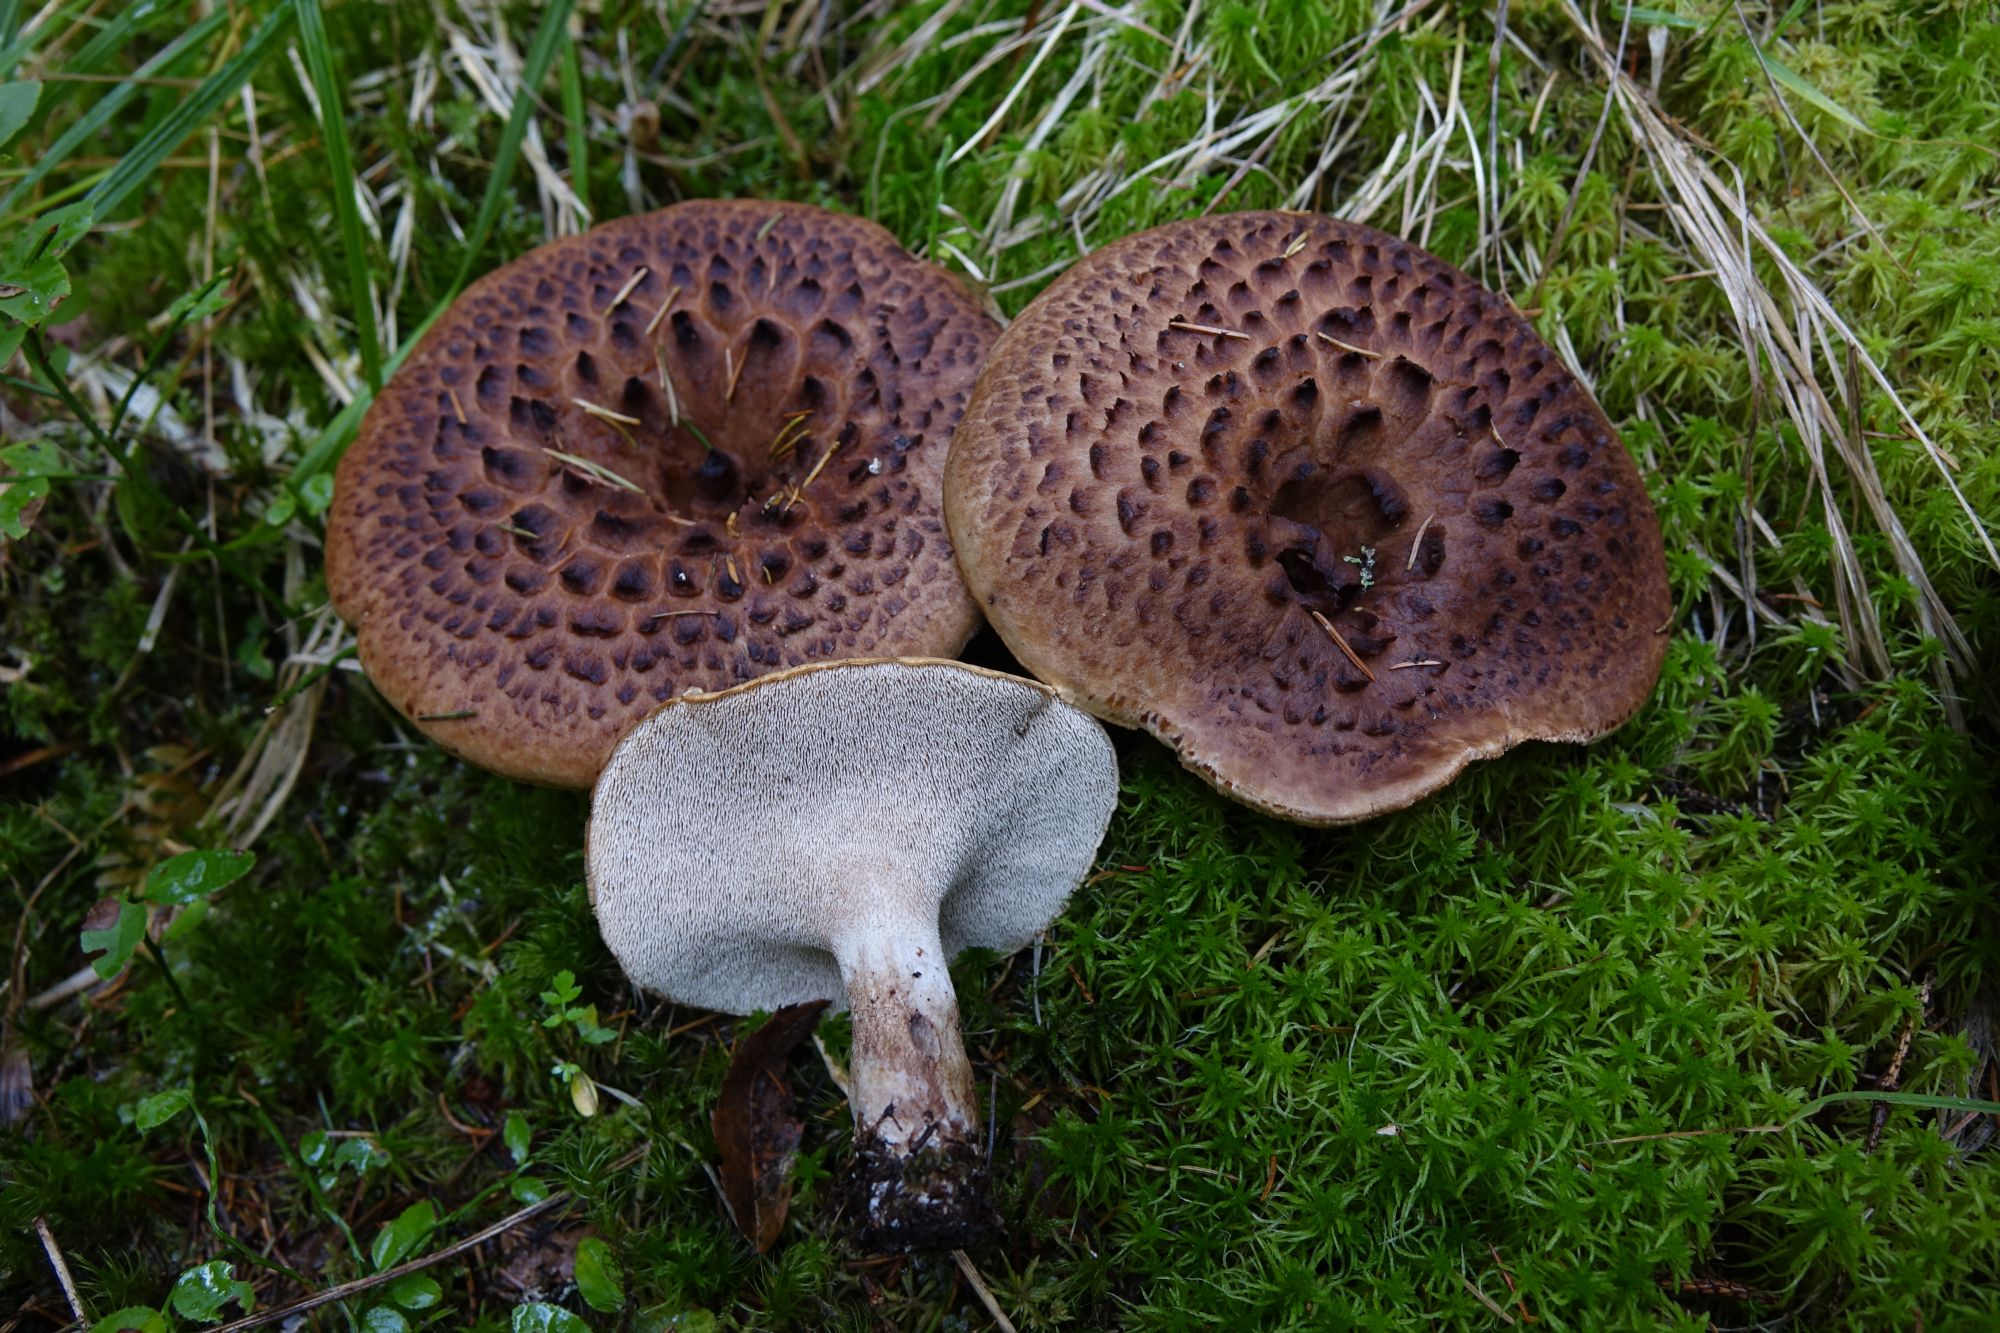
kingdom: Fungi
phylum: Basidiomycota
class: Agaricomycetes
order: Thelephorales
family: Bankeraceae
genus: Sarcodon
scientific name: Sarcodon imbricatus
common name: Shingled hedgehog
